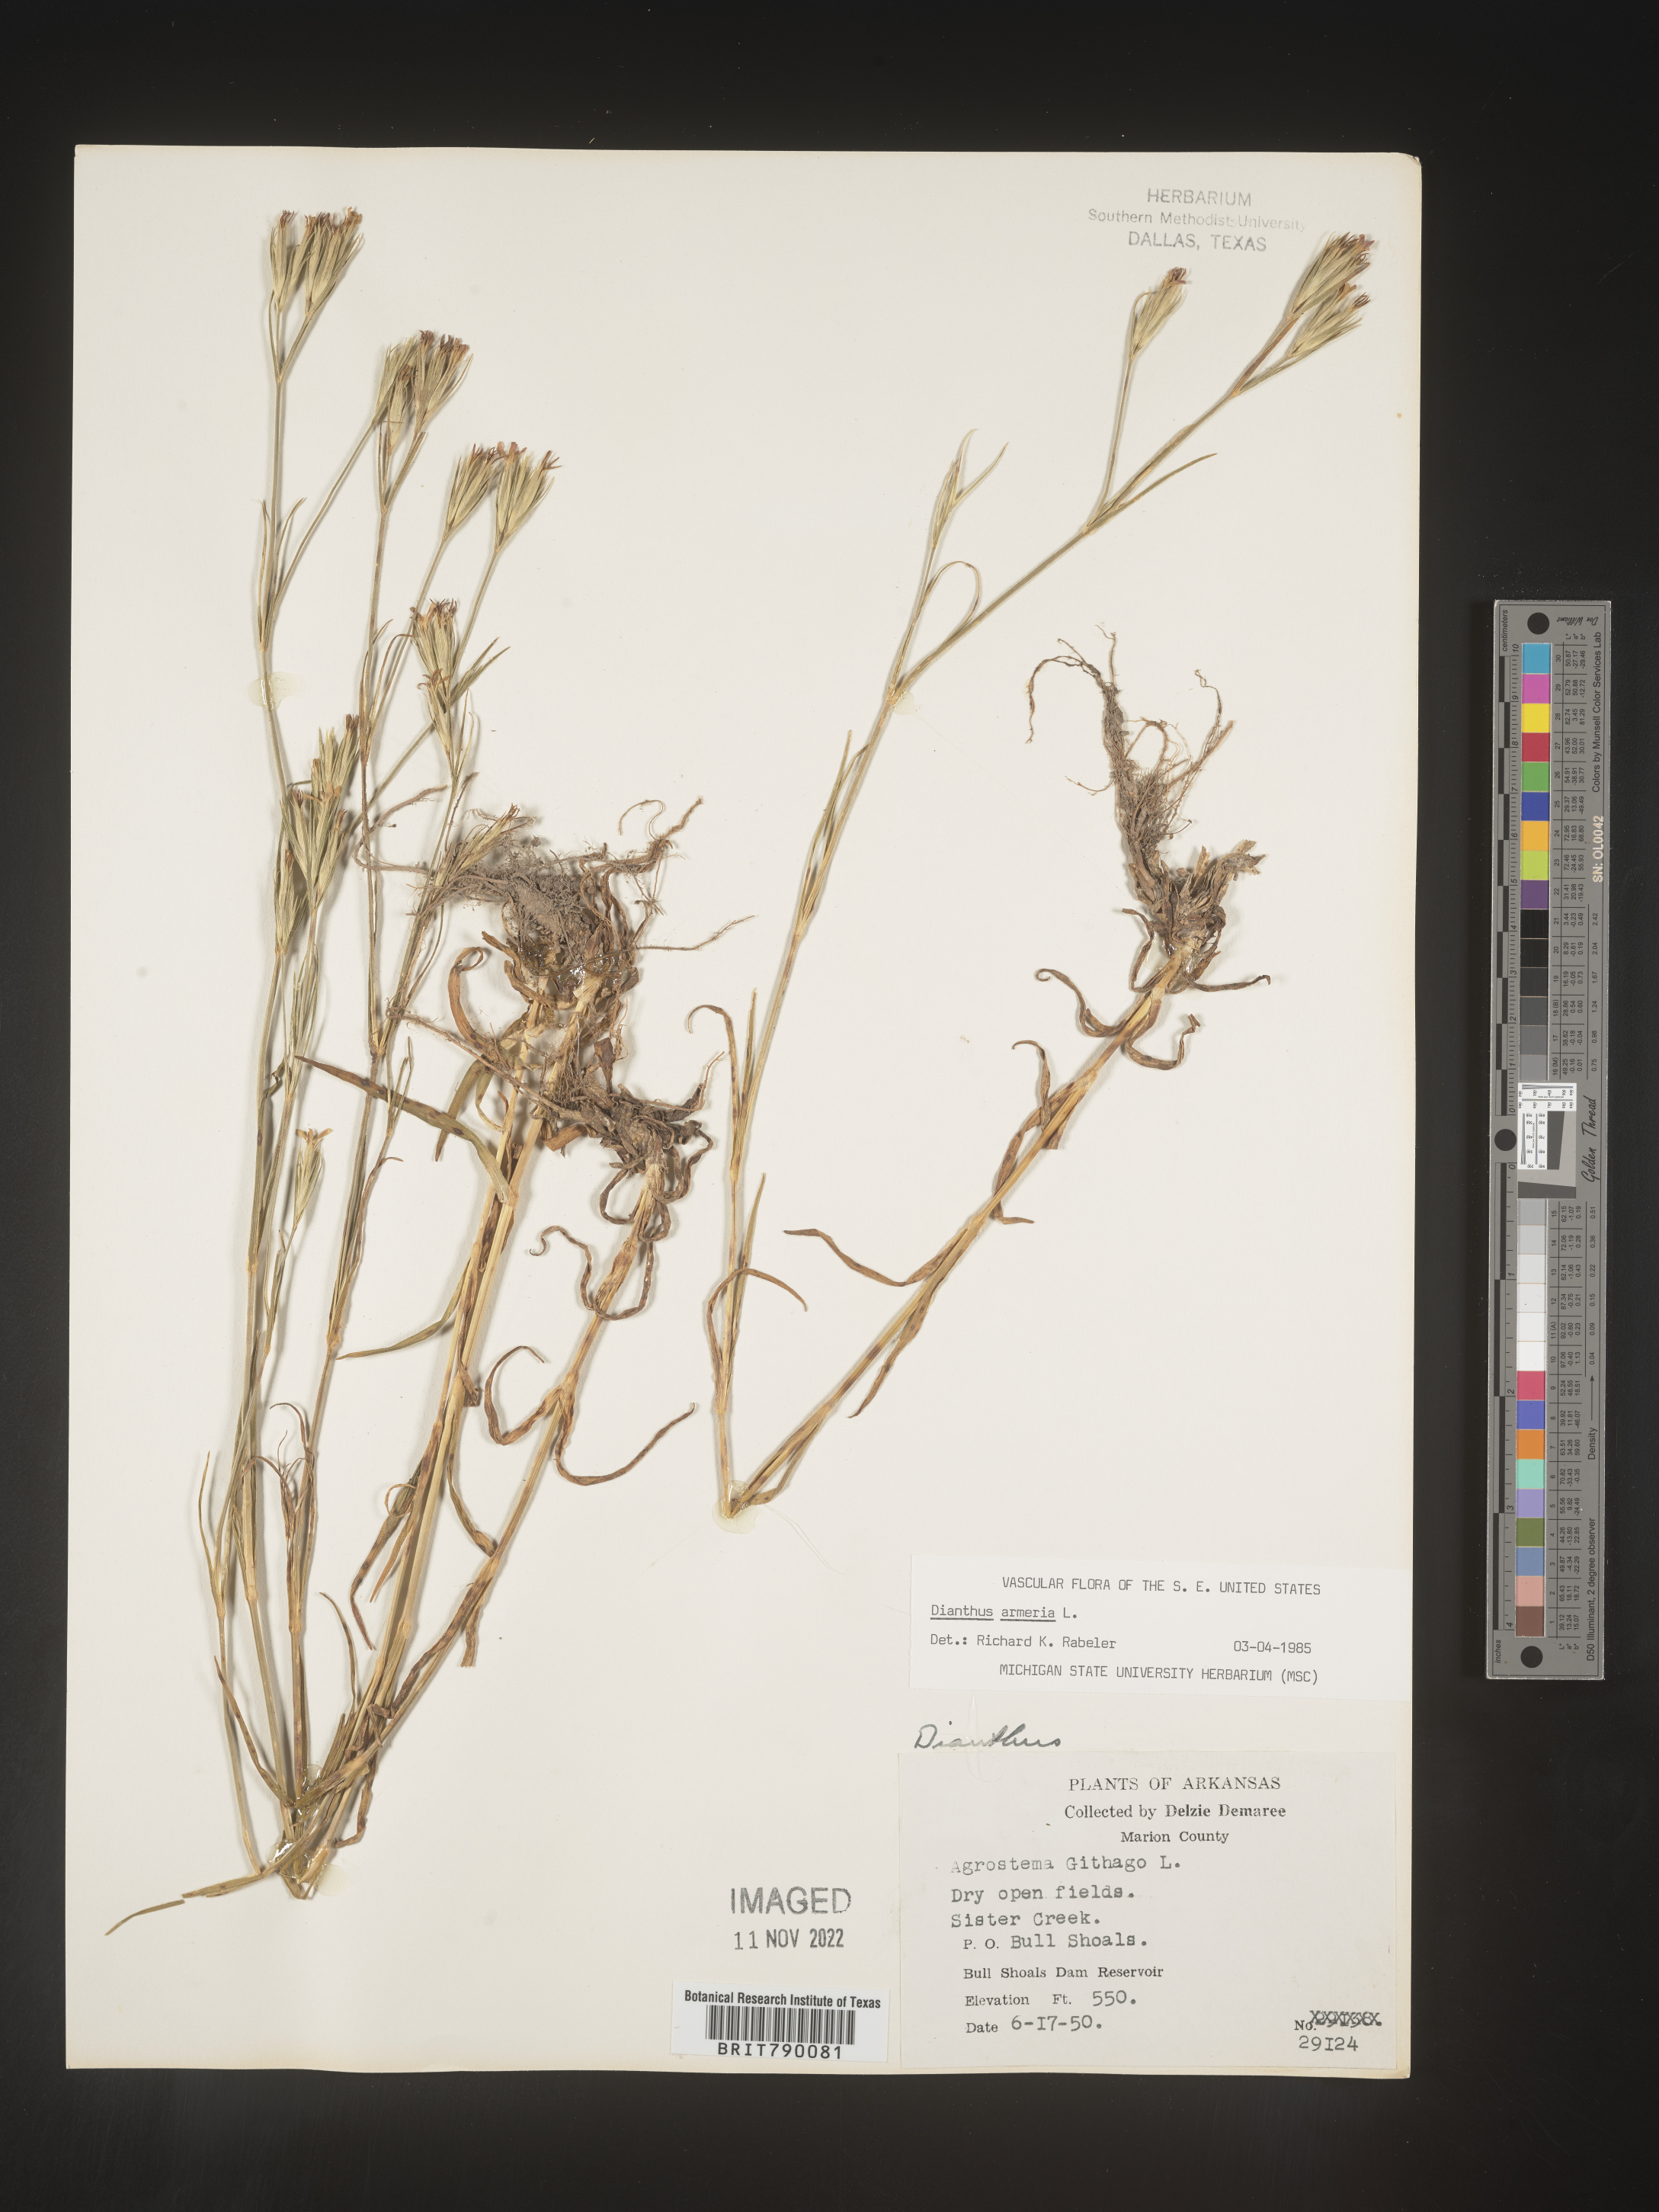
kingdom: Plantae
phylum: Tracheophyta
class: Magnoliopsida
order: Caryophyllales
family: Caryophyllaceae
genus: Dianthus
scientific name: Dianthus armeria
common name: Deptford pink
